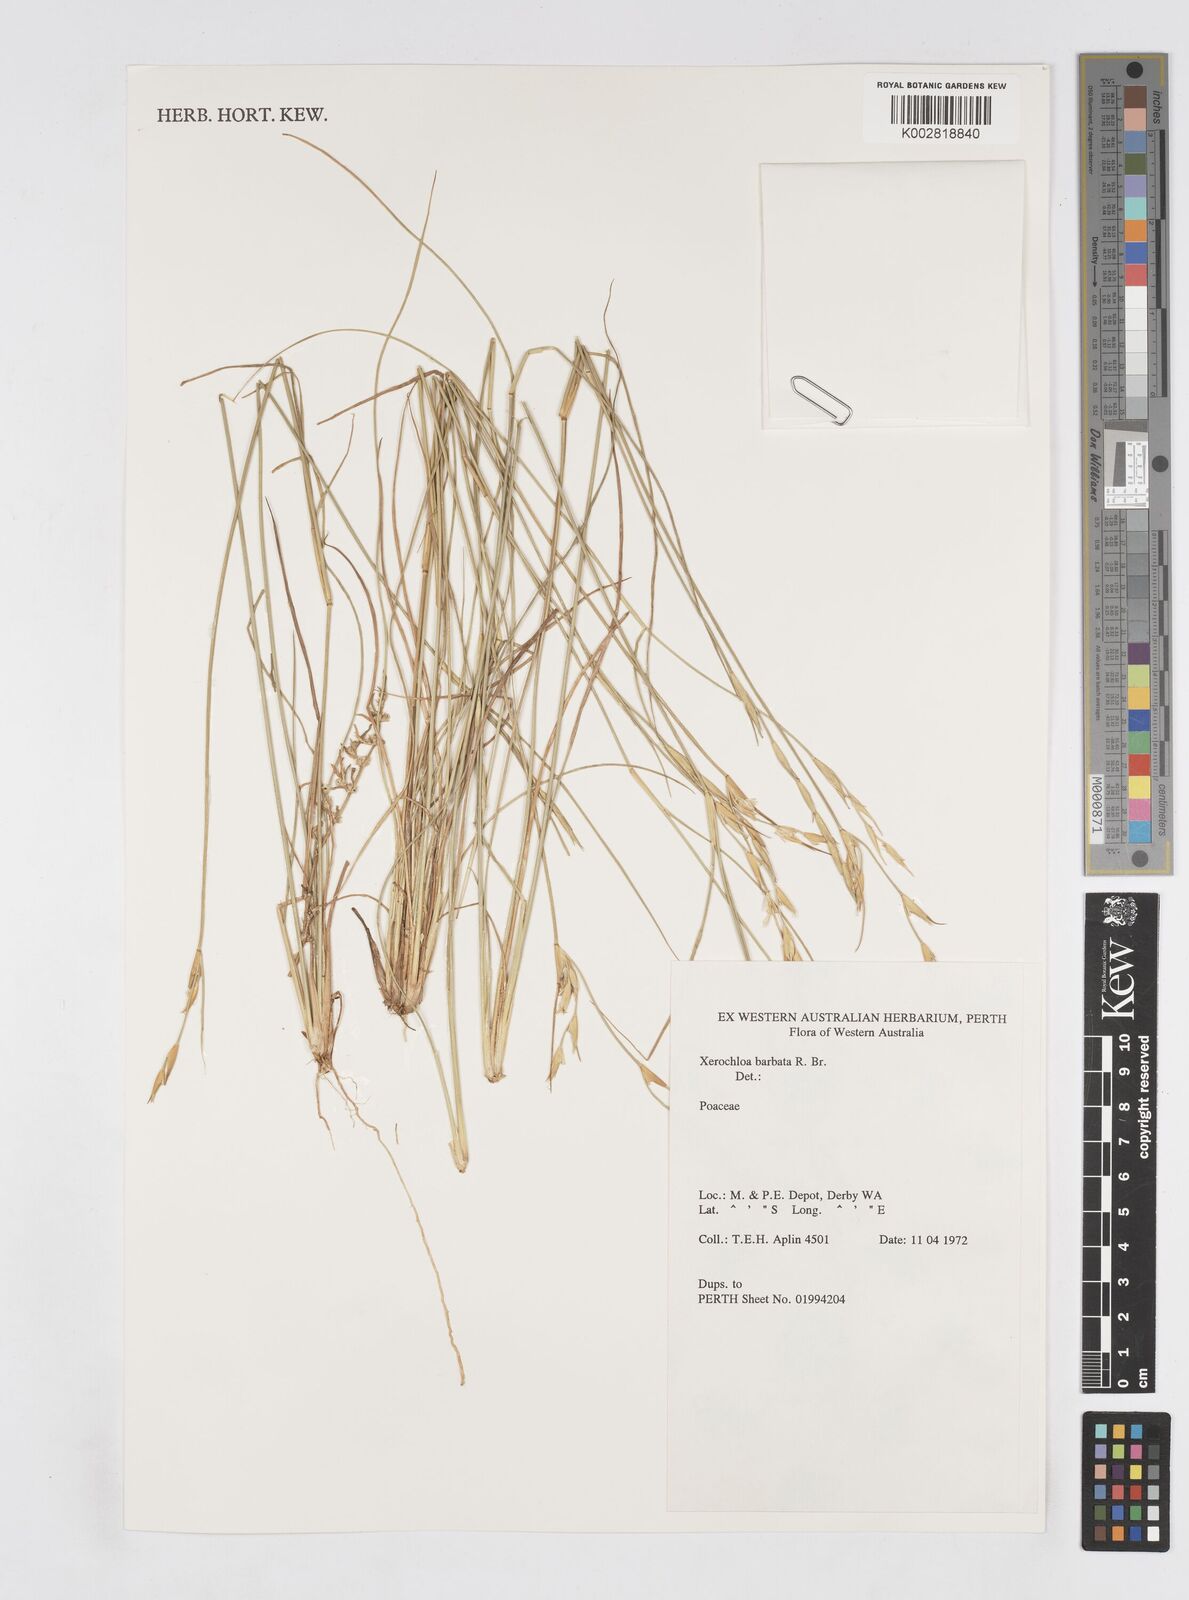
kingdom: Plantae
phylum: Tracheophyta
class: Liliopsida
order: Poales
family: Poaceae
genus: Xerochloa
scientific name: Xerochloa barbata
